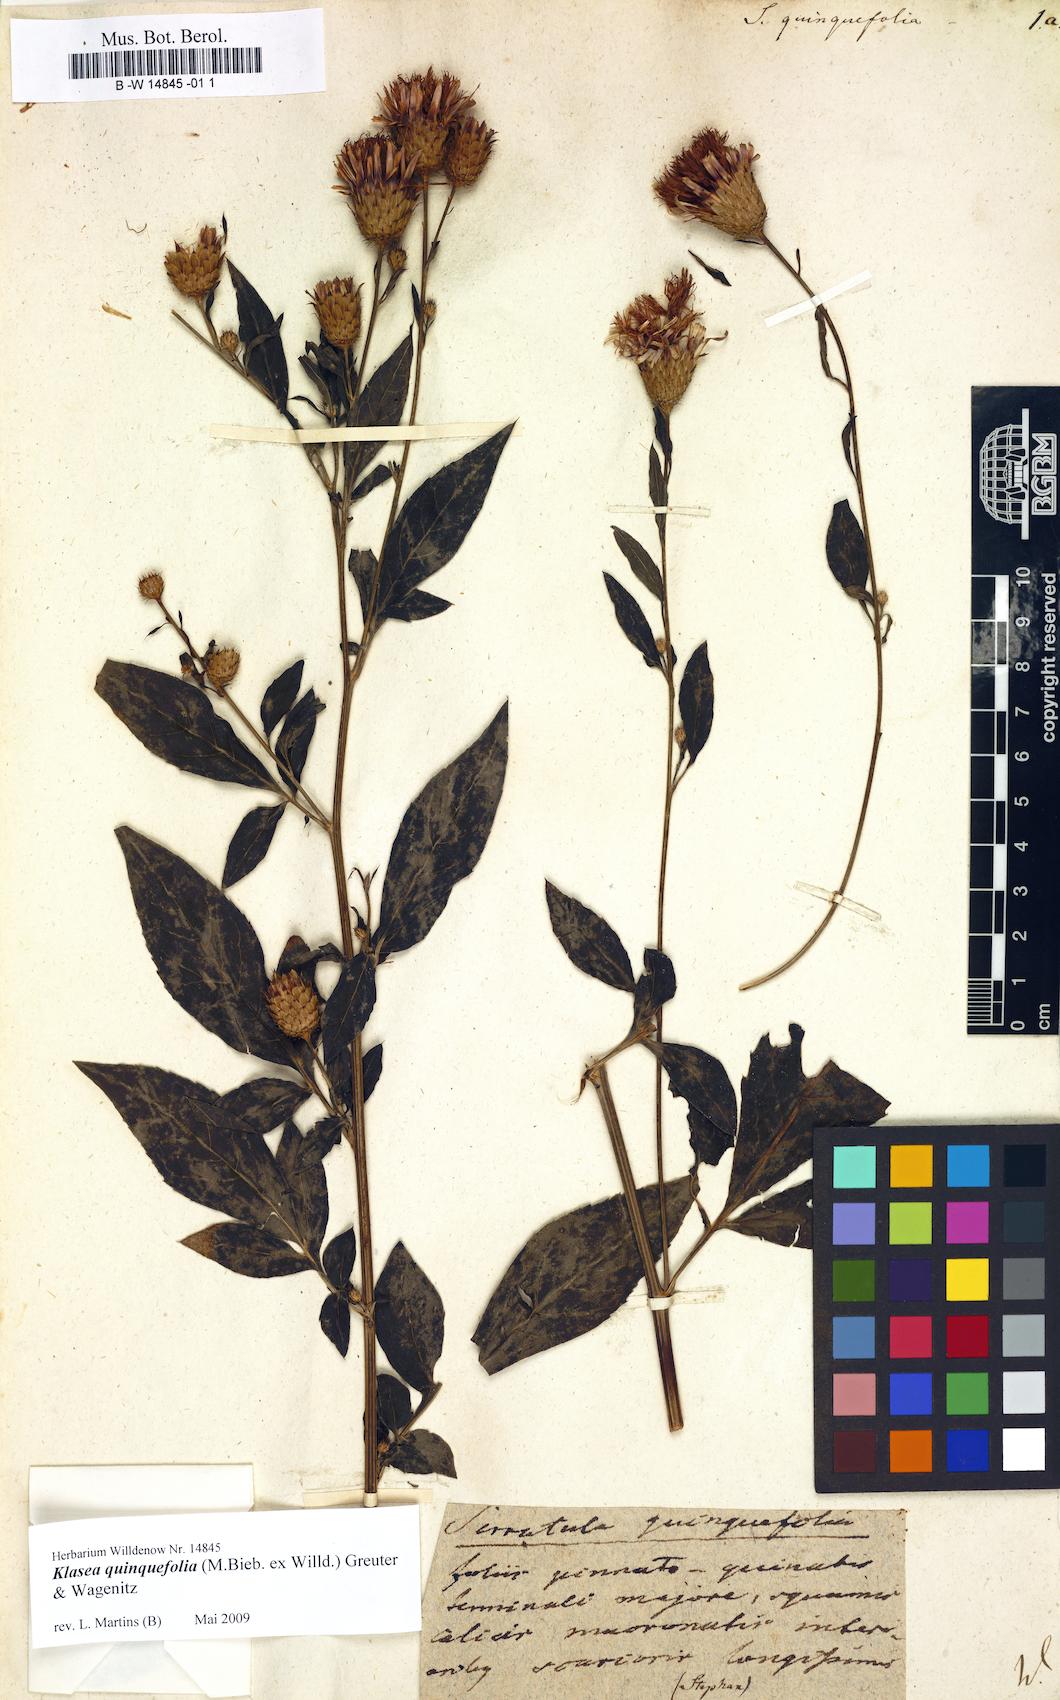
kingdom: Plantae
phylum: Tracheophyta
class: Magnoliopsida
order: Asterales
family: Asteraceae
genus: Klasea
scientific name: Klasea quinquefolia
